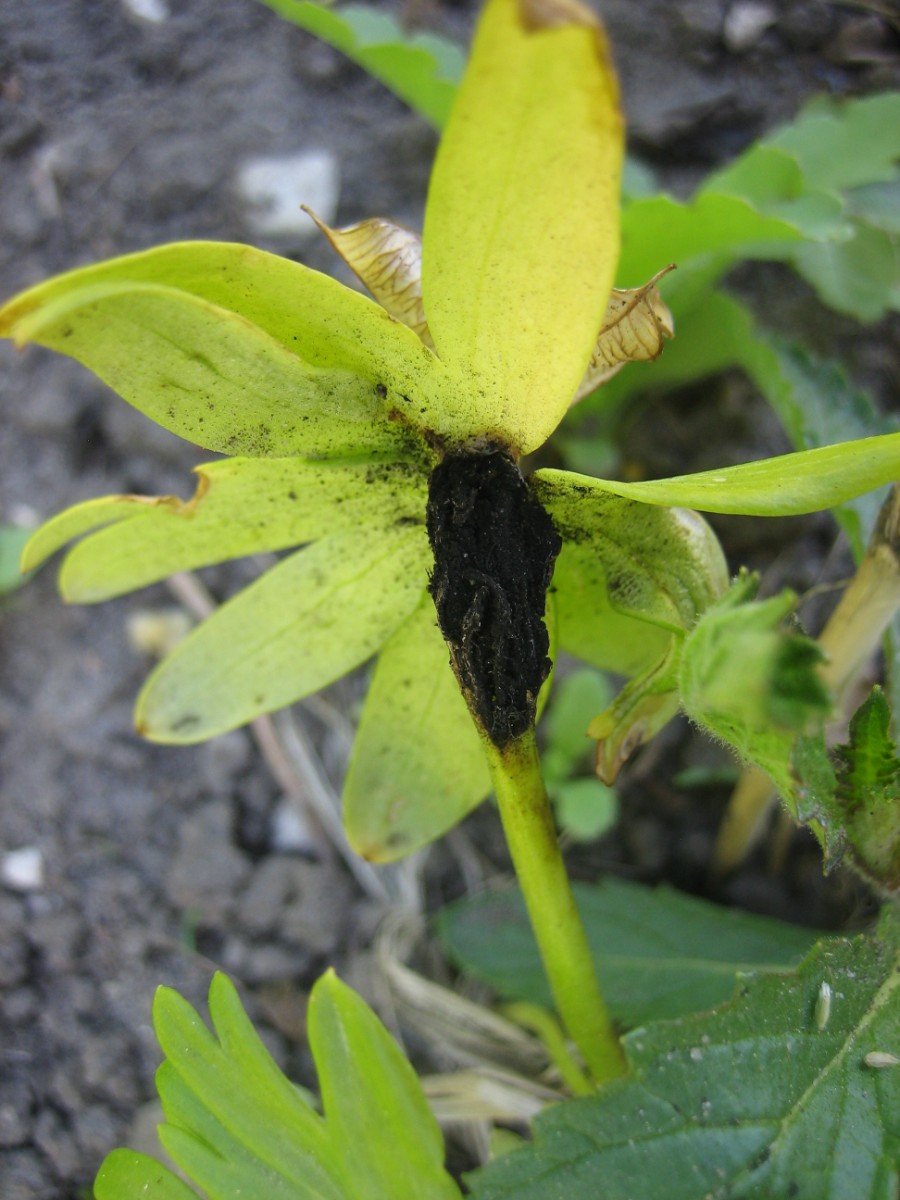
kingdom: Fungi
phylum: Basidiomycota
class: Ustilaginomycetes
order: Urocystidales
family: Urocystidaceae
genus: Urocystis
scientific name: Urocystis eranthidis
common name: erantis-brand
